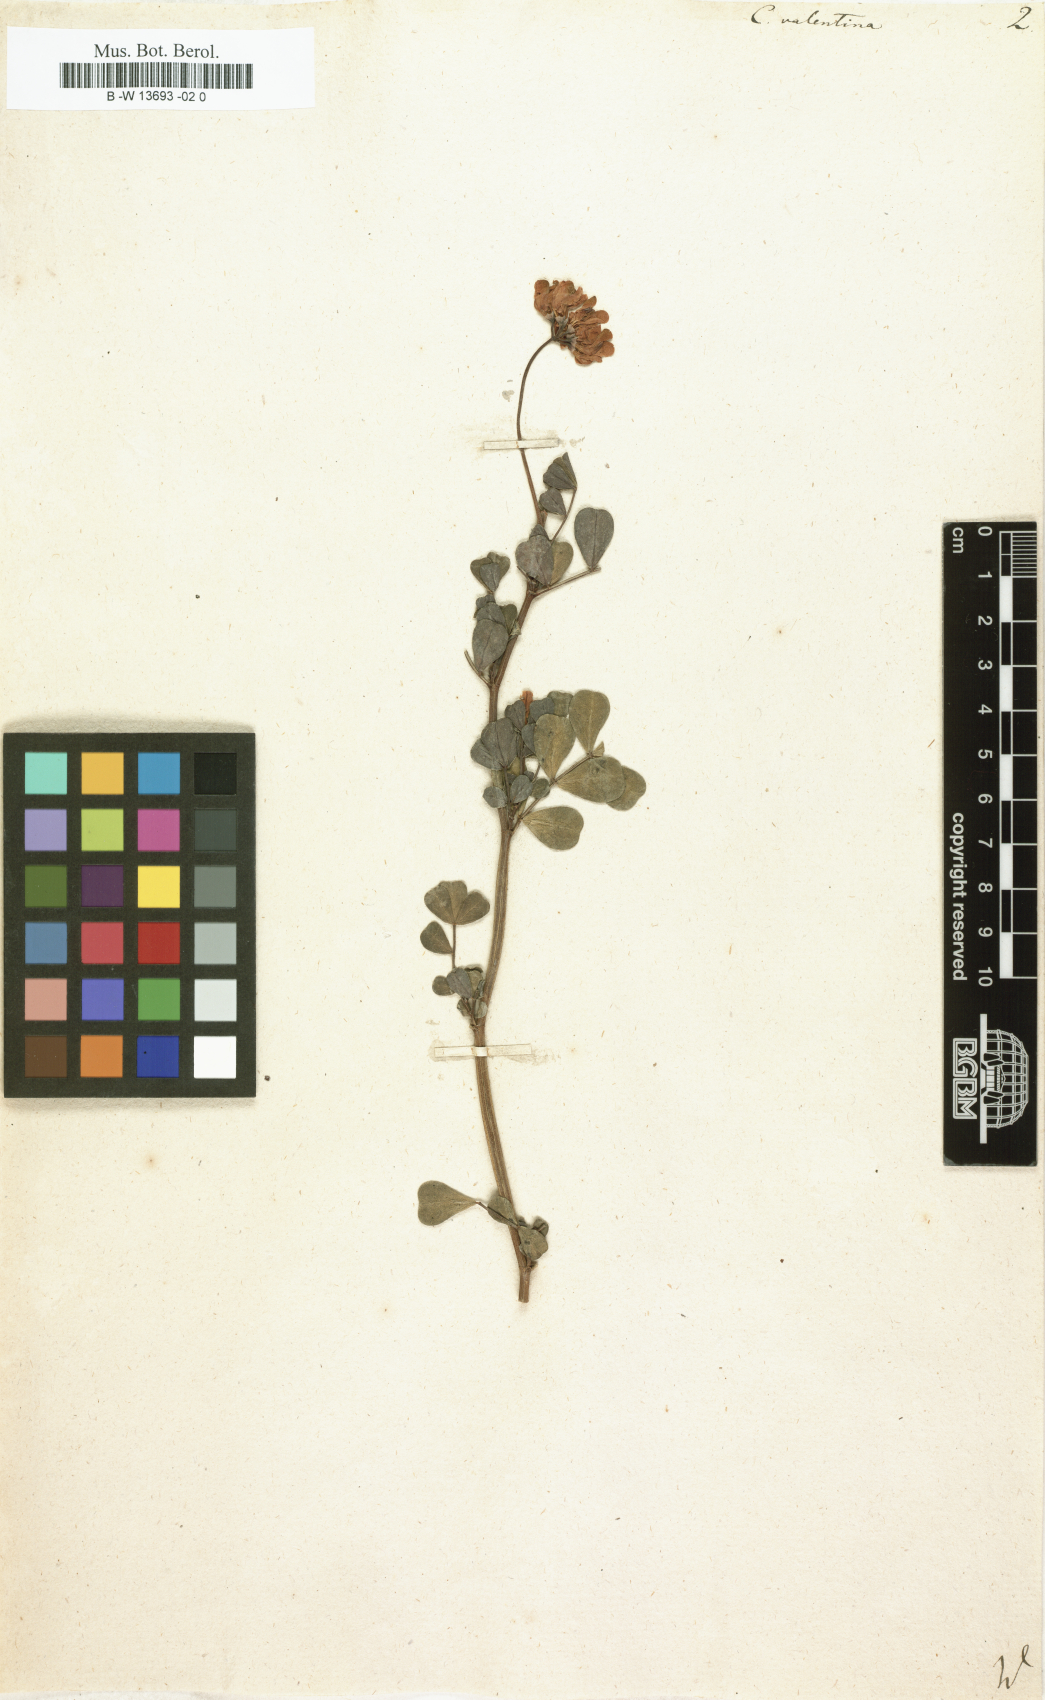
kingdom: Plantae
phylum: Tracheophyta
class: Magnoliopsida
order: Fabales
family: Fabaceae
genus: Coronilla
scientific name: Coronilla valentina
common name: Shrubby scorpion-vetch
